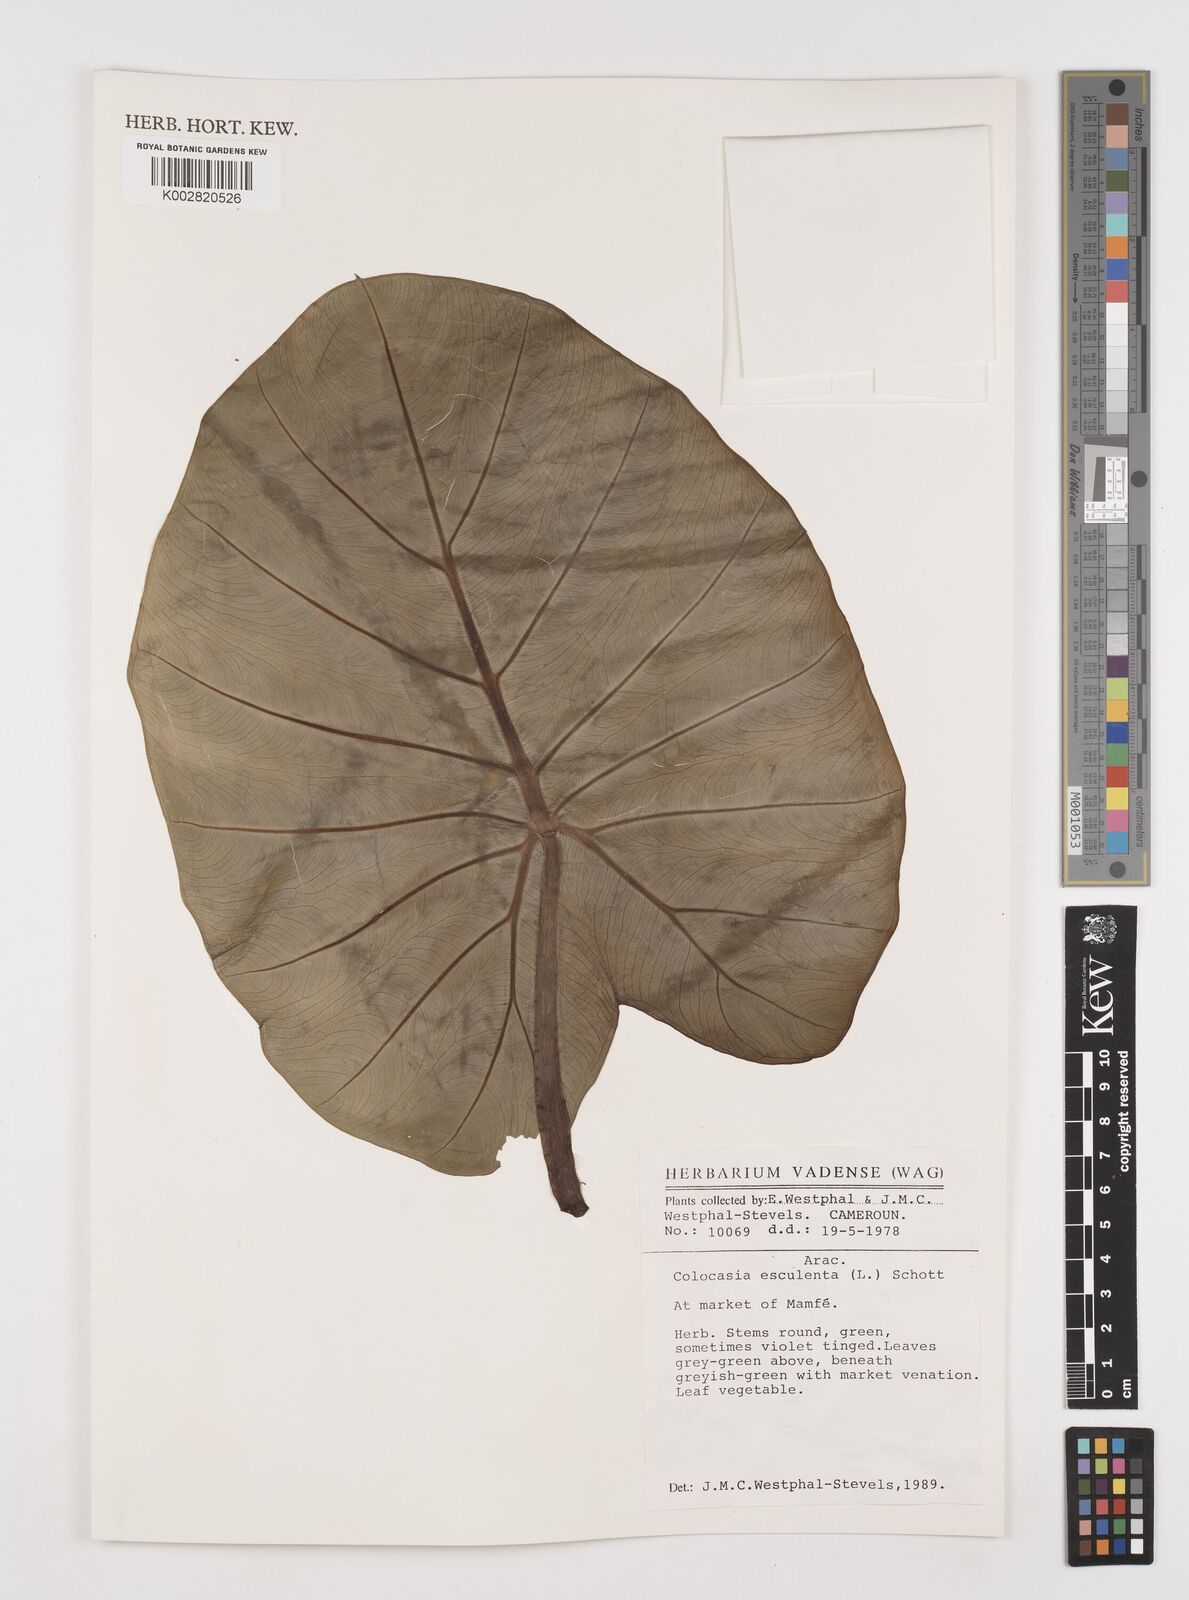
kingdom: Plantae
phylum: Tracheophyta
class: Liliopsida
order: Alismatales
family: Araceae
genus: Colocasia
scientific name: Colocasia esculenta
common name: Taro
